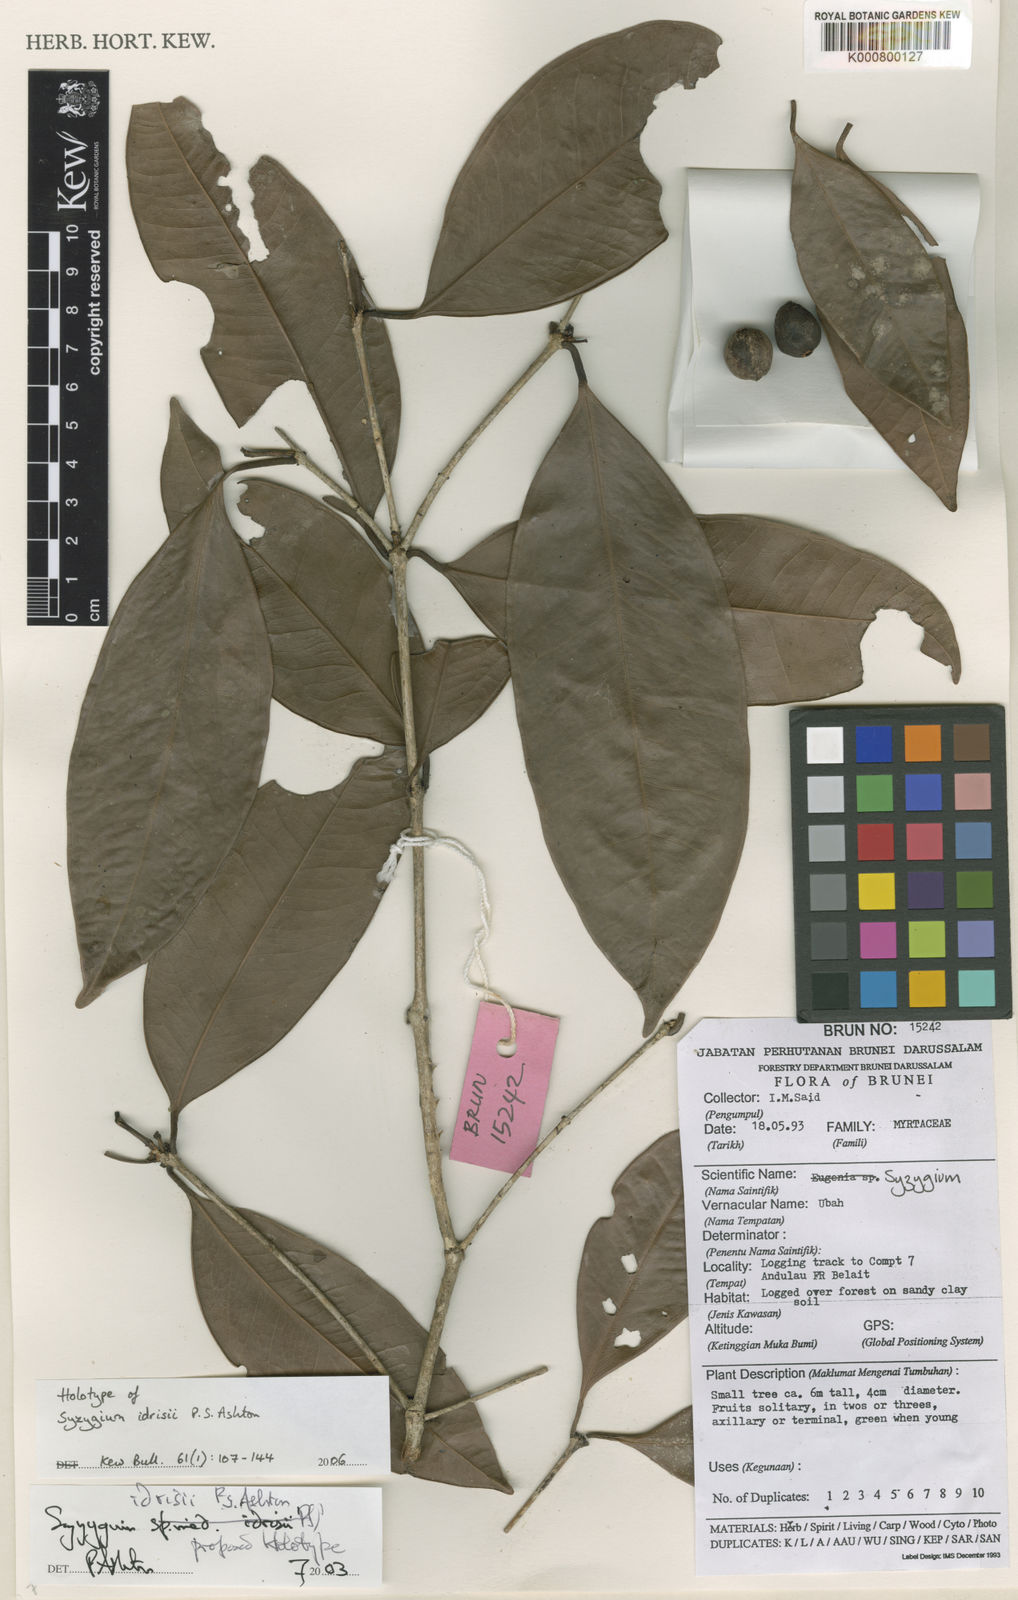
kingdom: Plantae
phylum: Tracheophyta
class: Magnoliopsida
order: Myrtales
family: Myrtaceae
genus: Syzygium
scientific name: Syzygium idrisii
